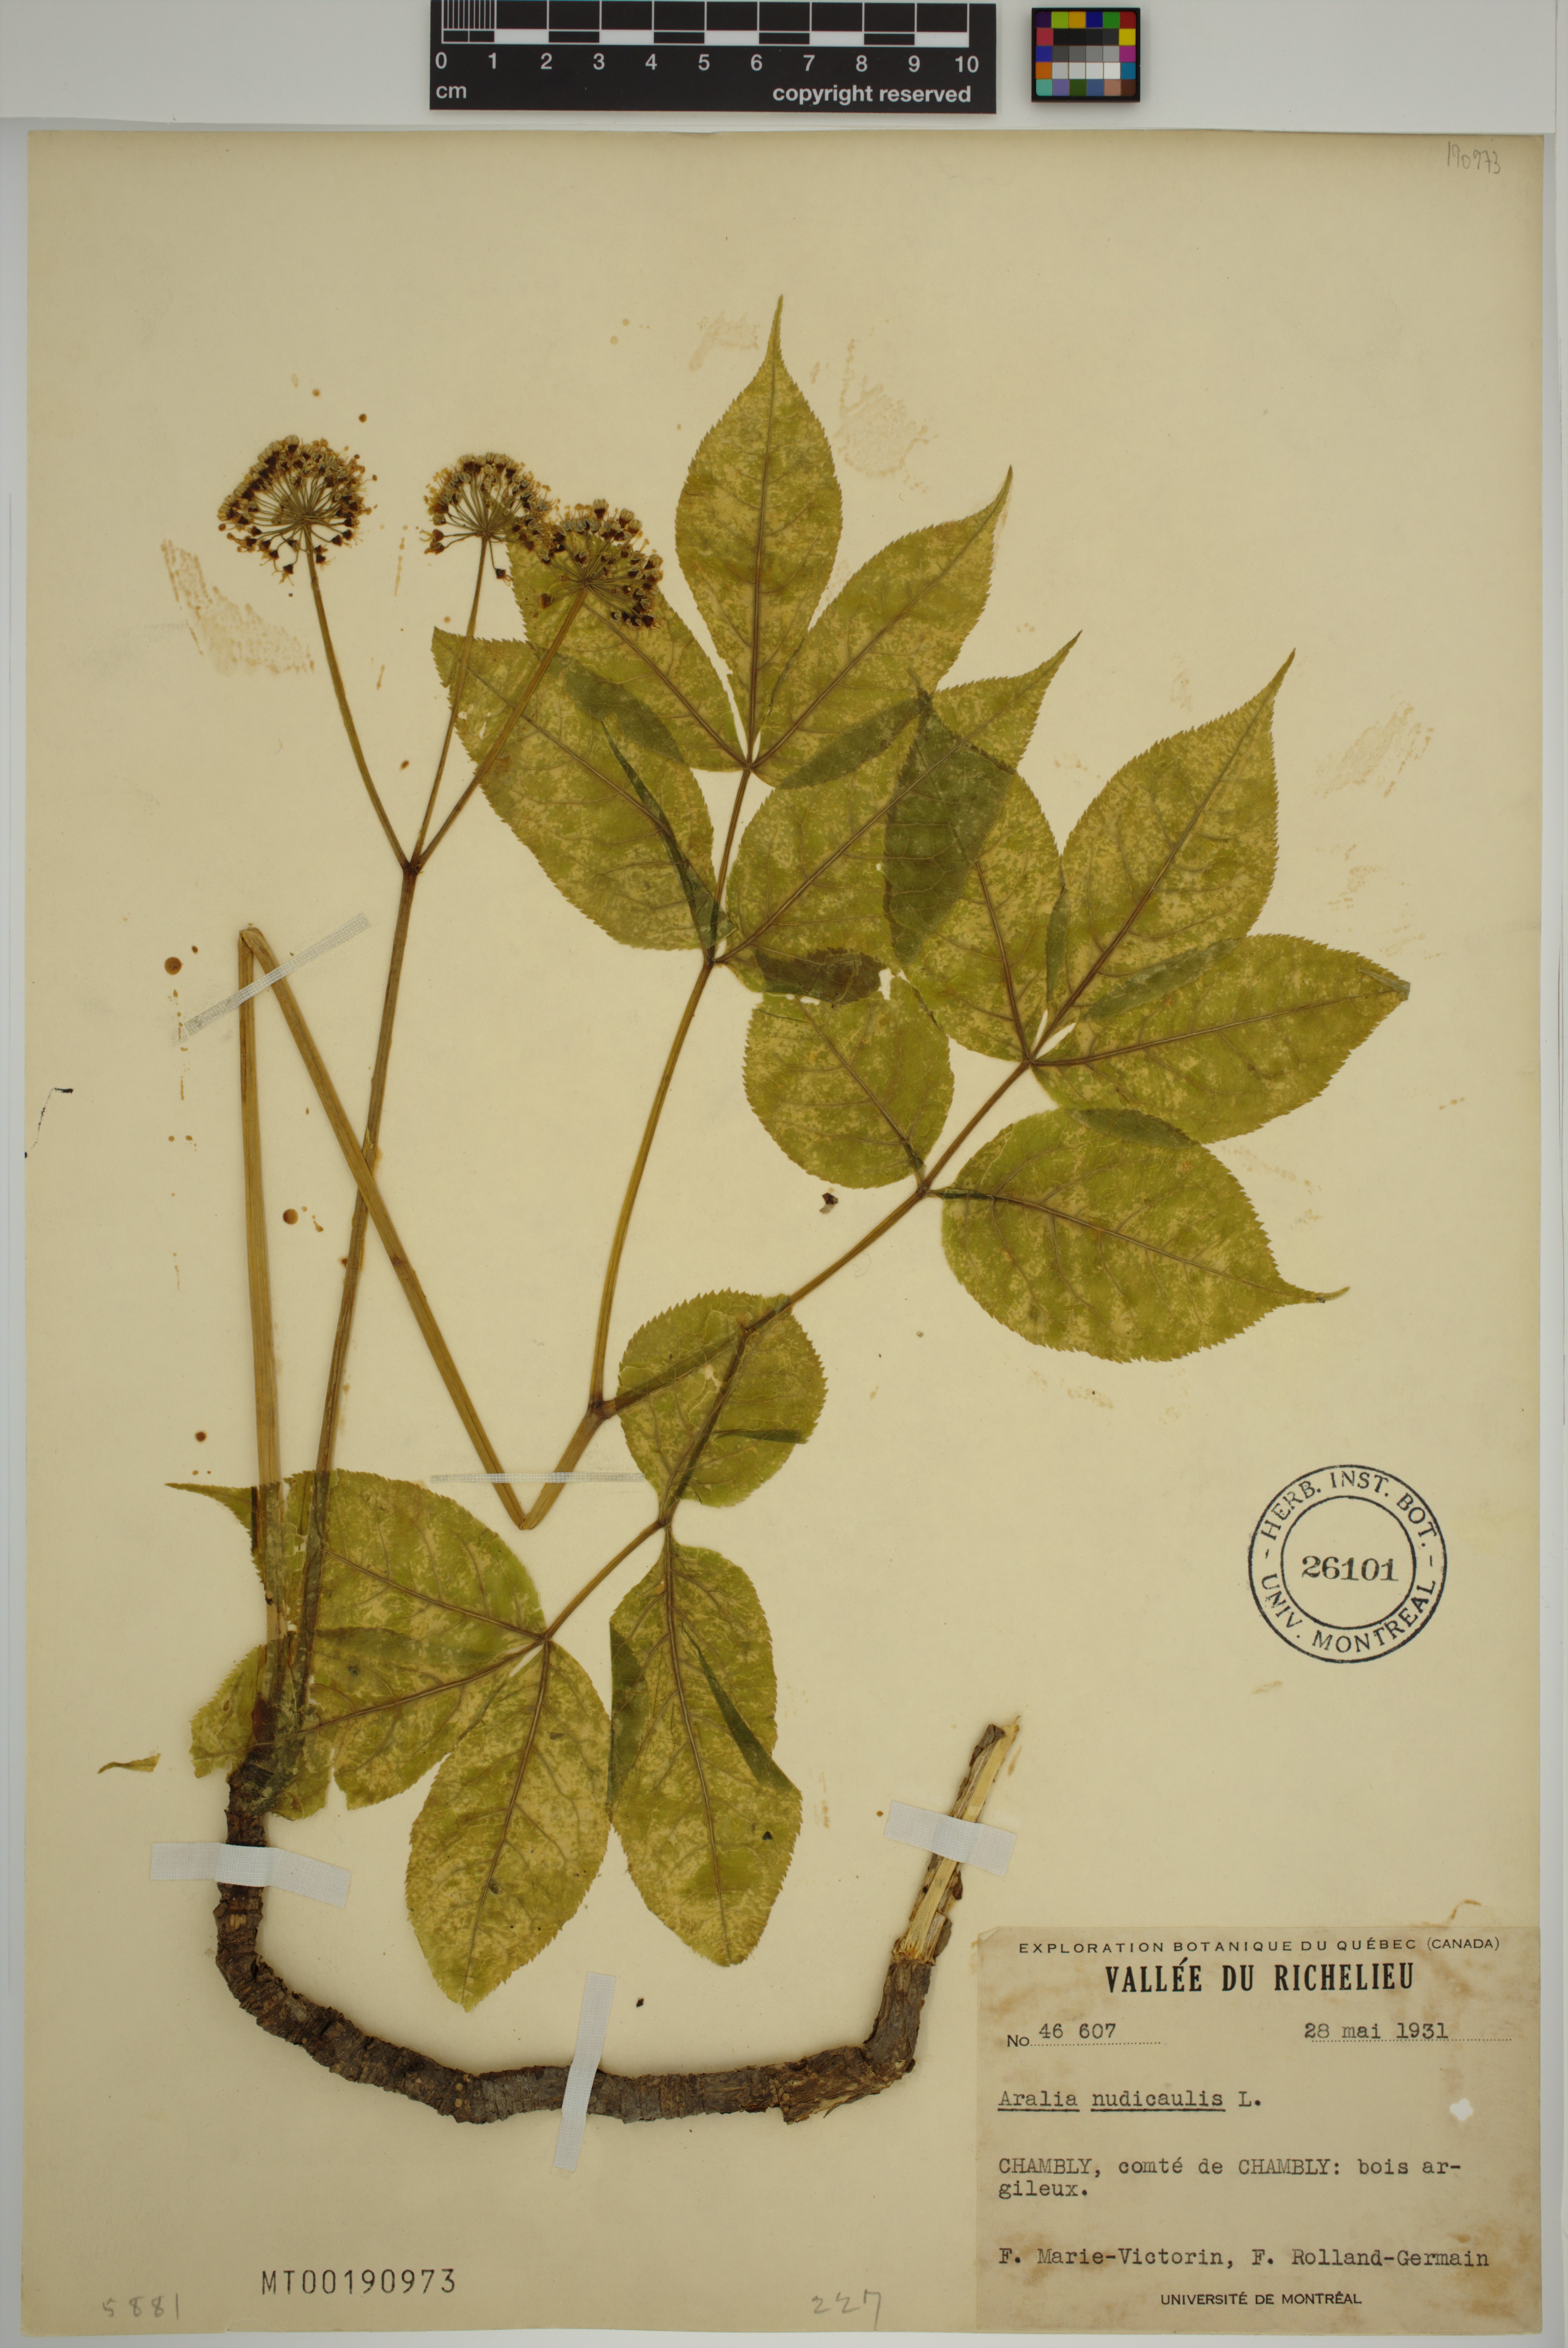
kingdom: Plantae
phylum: Tracheophyta
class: Magnoliopsida
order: Apiales
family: Araliaceae
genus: Aralia
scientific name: Aralia nudicaulis
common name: Wild sarsaparilla
